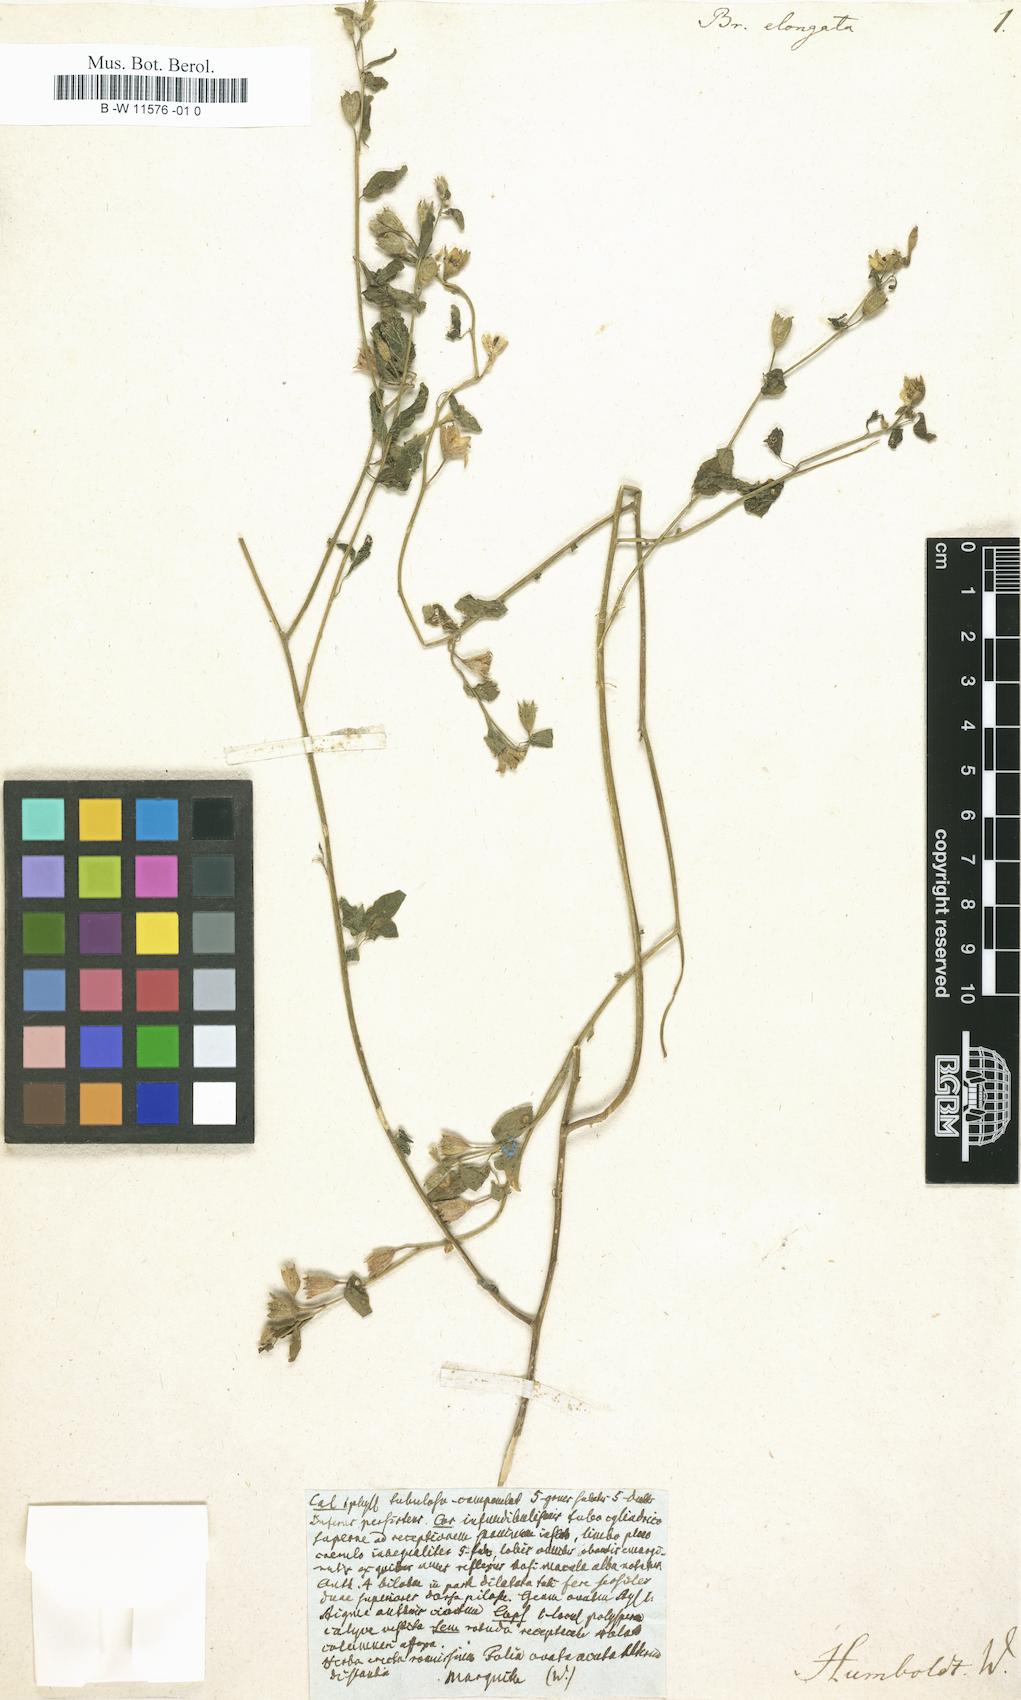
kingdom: Plantae
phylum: Tracheophyta
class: Magnoliopsida
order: Solanales
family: Solanaceae
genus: Browallia
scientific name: Browallia americana
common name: Jamaican forget-me-not
